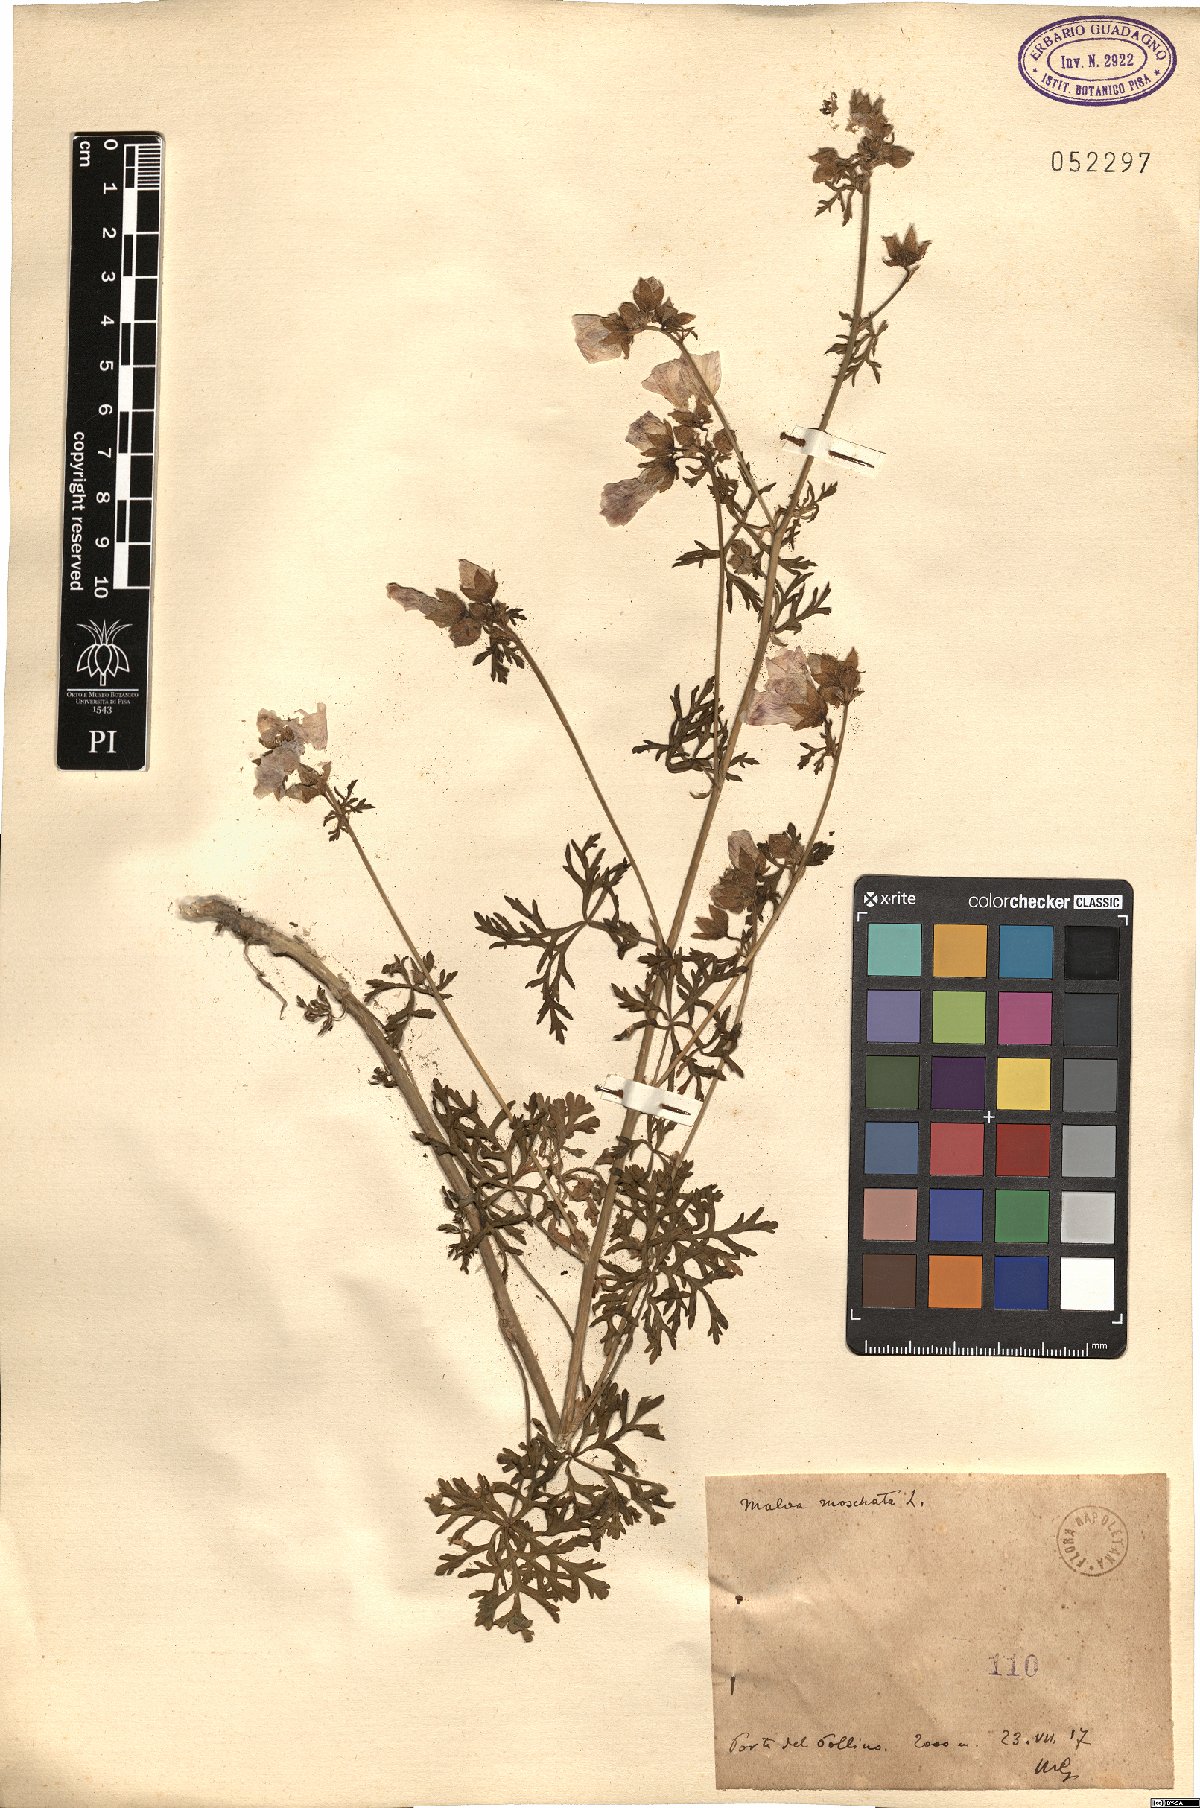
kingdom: Plantae
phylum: Tracheophyta
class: Magnoliopsida
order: Malvales
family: Malvaceae
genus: Malva
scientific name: Malva moschata
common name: Musk mallow
